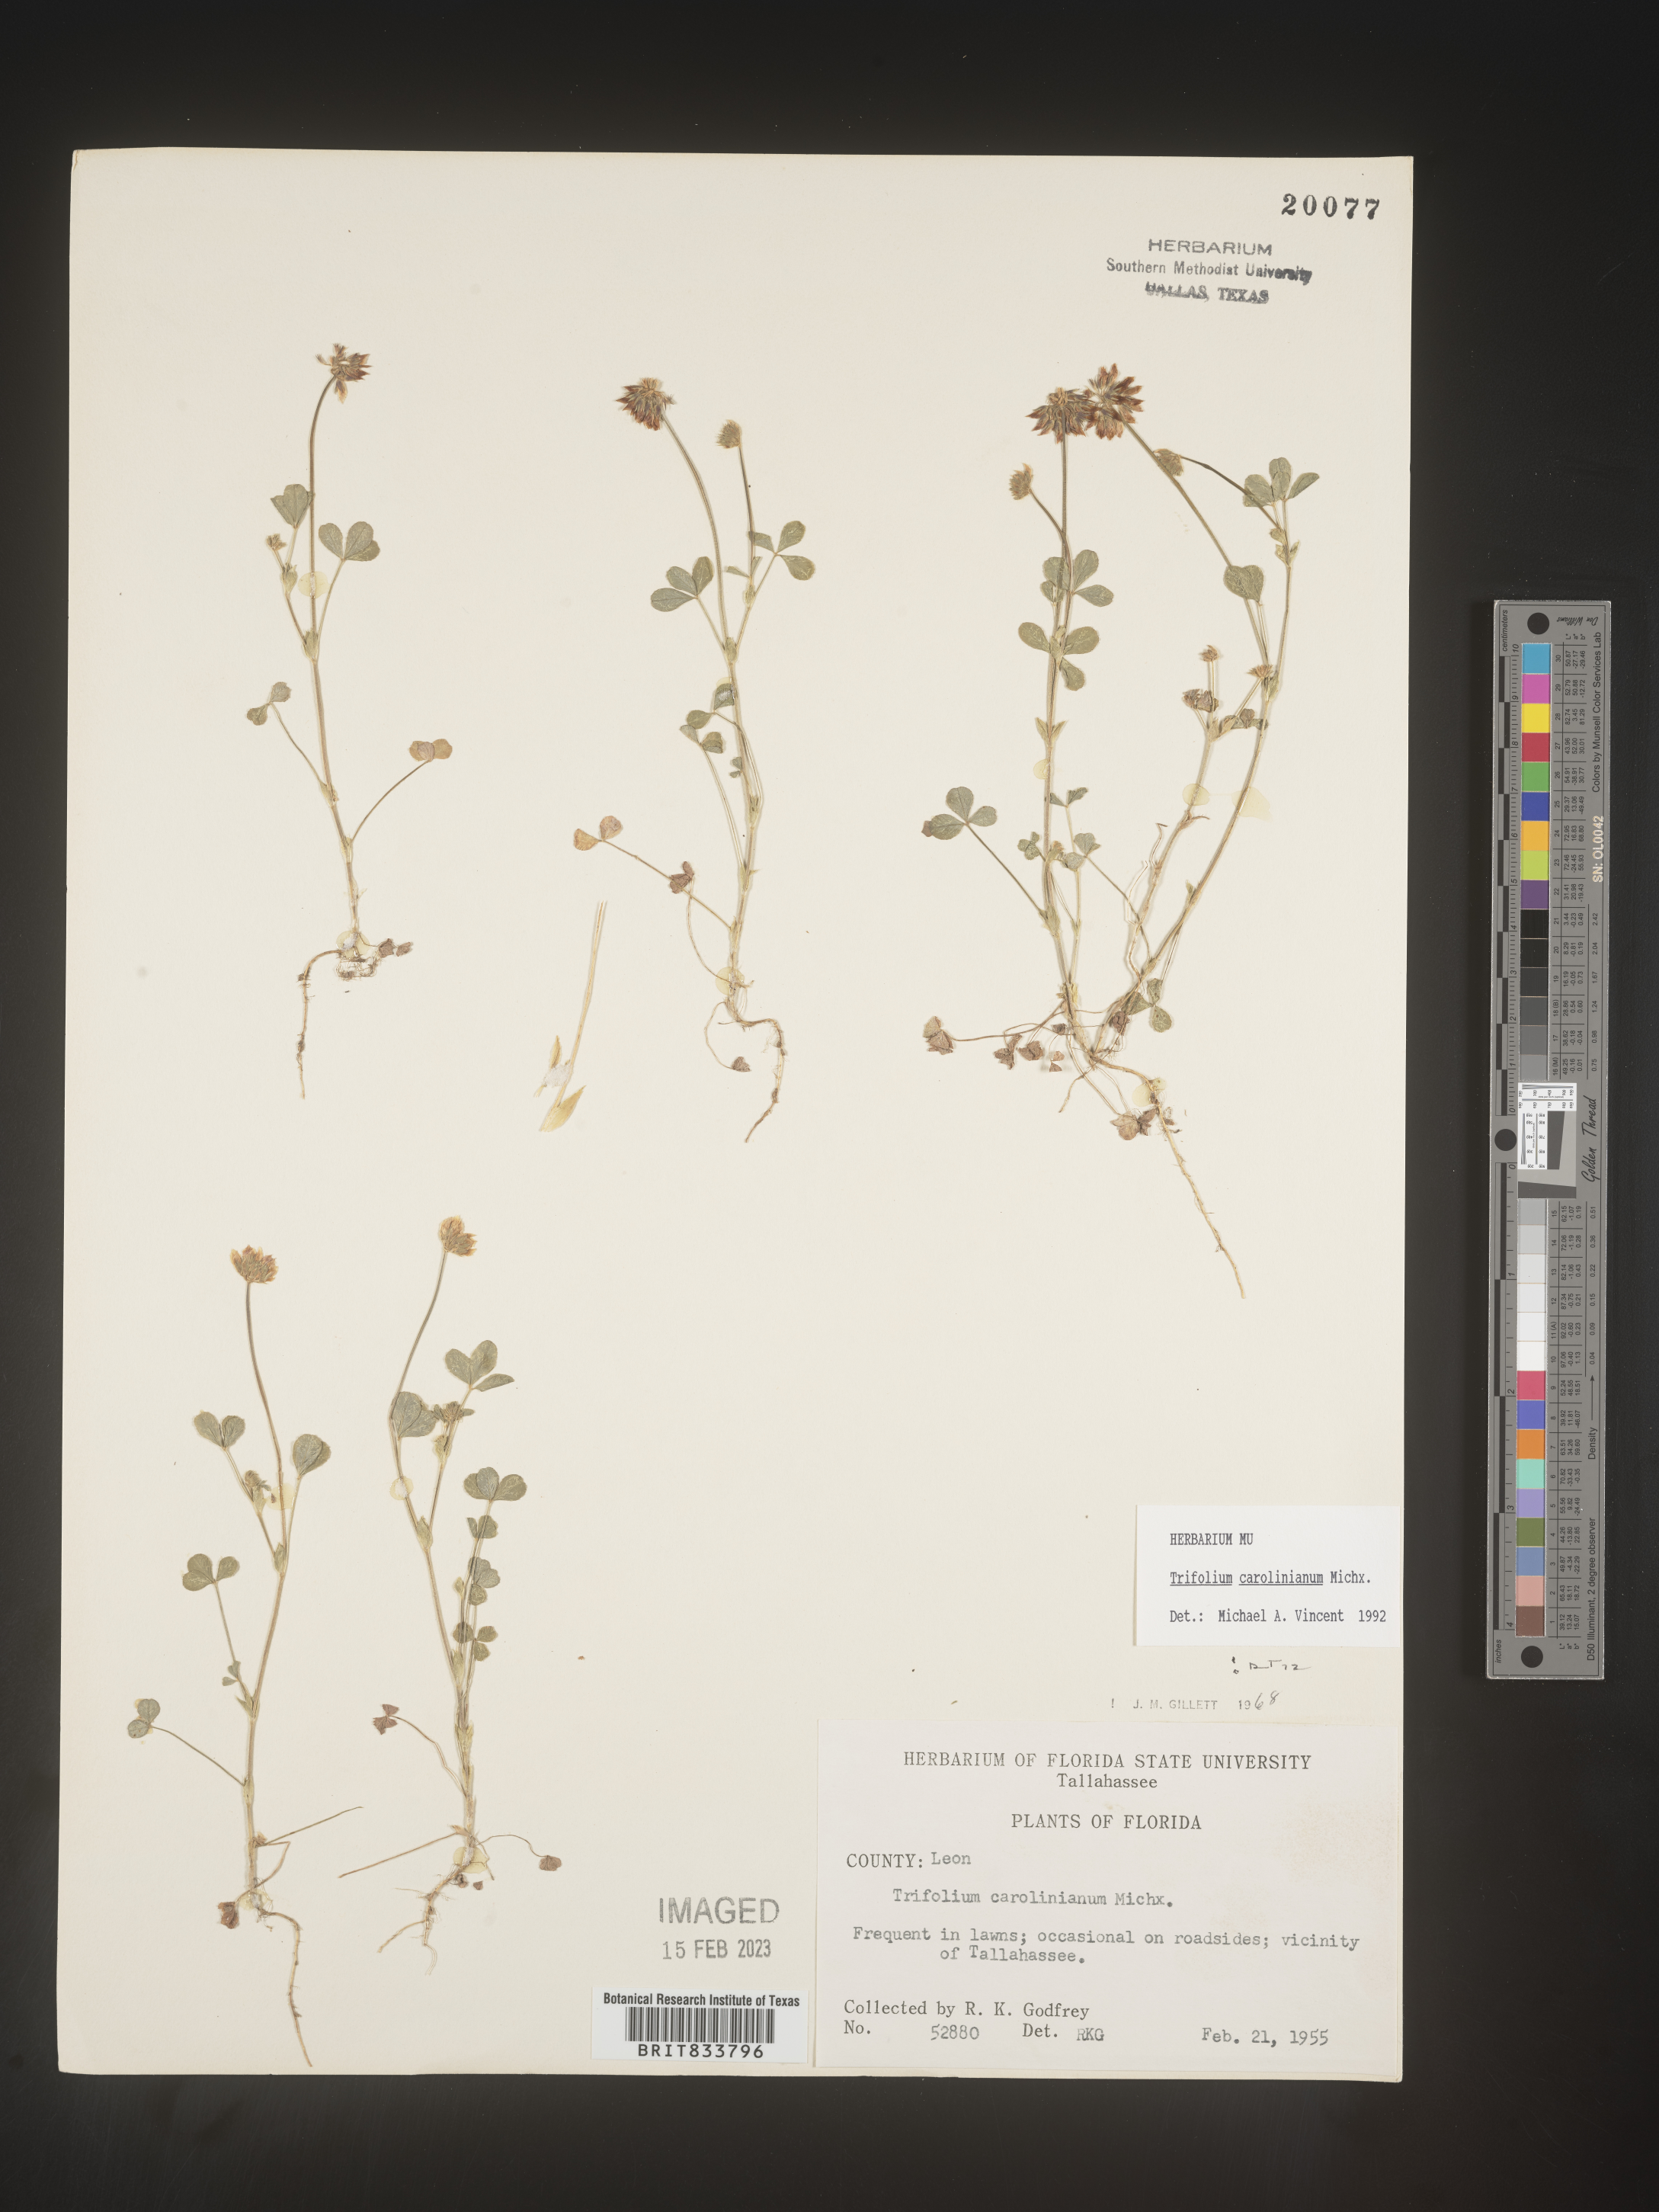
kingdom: Plantae
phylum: Tracheophyta
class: Magnoliopsida
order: Fabales
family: Fabaceae
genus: Trifolium
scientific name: Trifolium carolinianum
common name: Wild white clover
